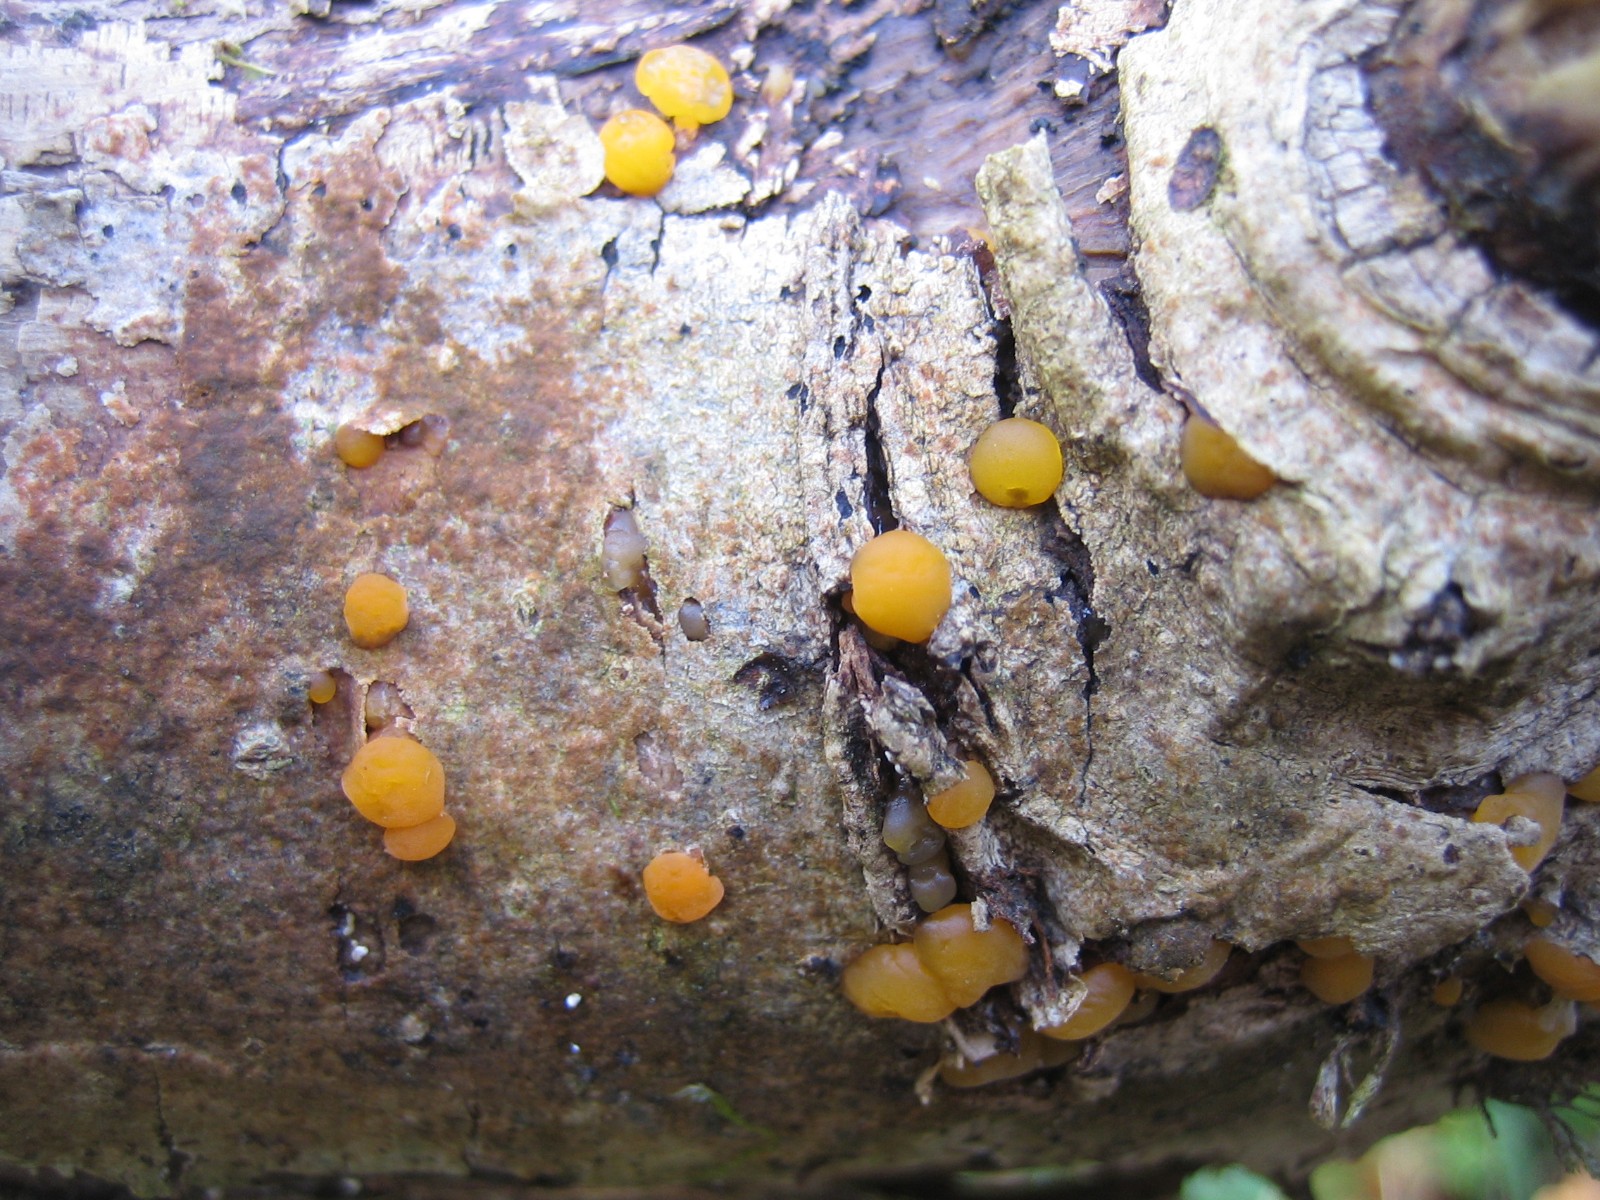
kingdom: Fungi
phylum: Basidiomycota
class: Dacrymycetes
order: Dacrymycetales
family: Dacrymycetaceae
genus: Dacrymyces
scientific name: Dacrymyces
